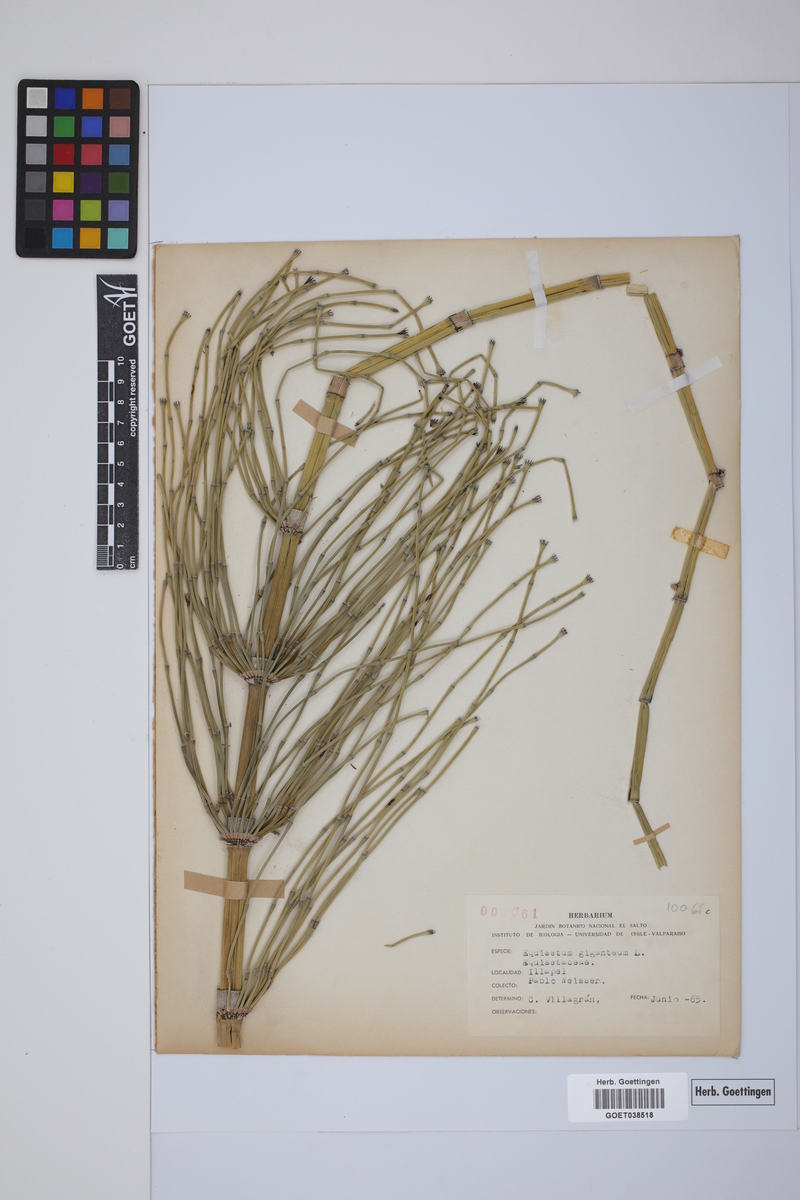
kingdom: Plantae
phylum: Tracheophyta
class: Polypodiopsida
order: Equisetales
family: Equisetaceae
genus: Equisetum
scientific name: Equisetum giganteum
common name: Giant horsetail
